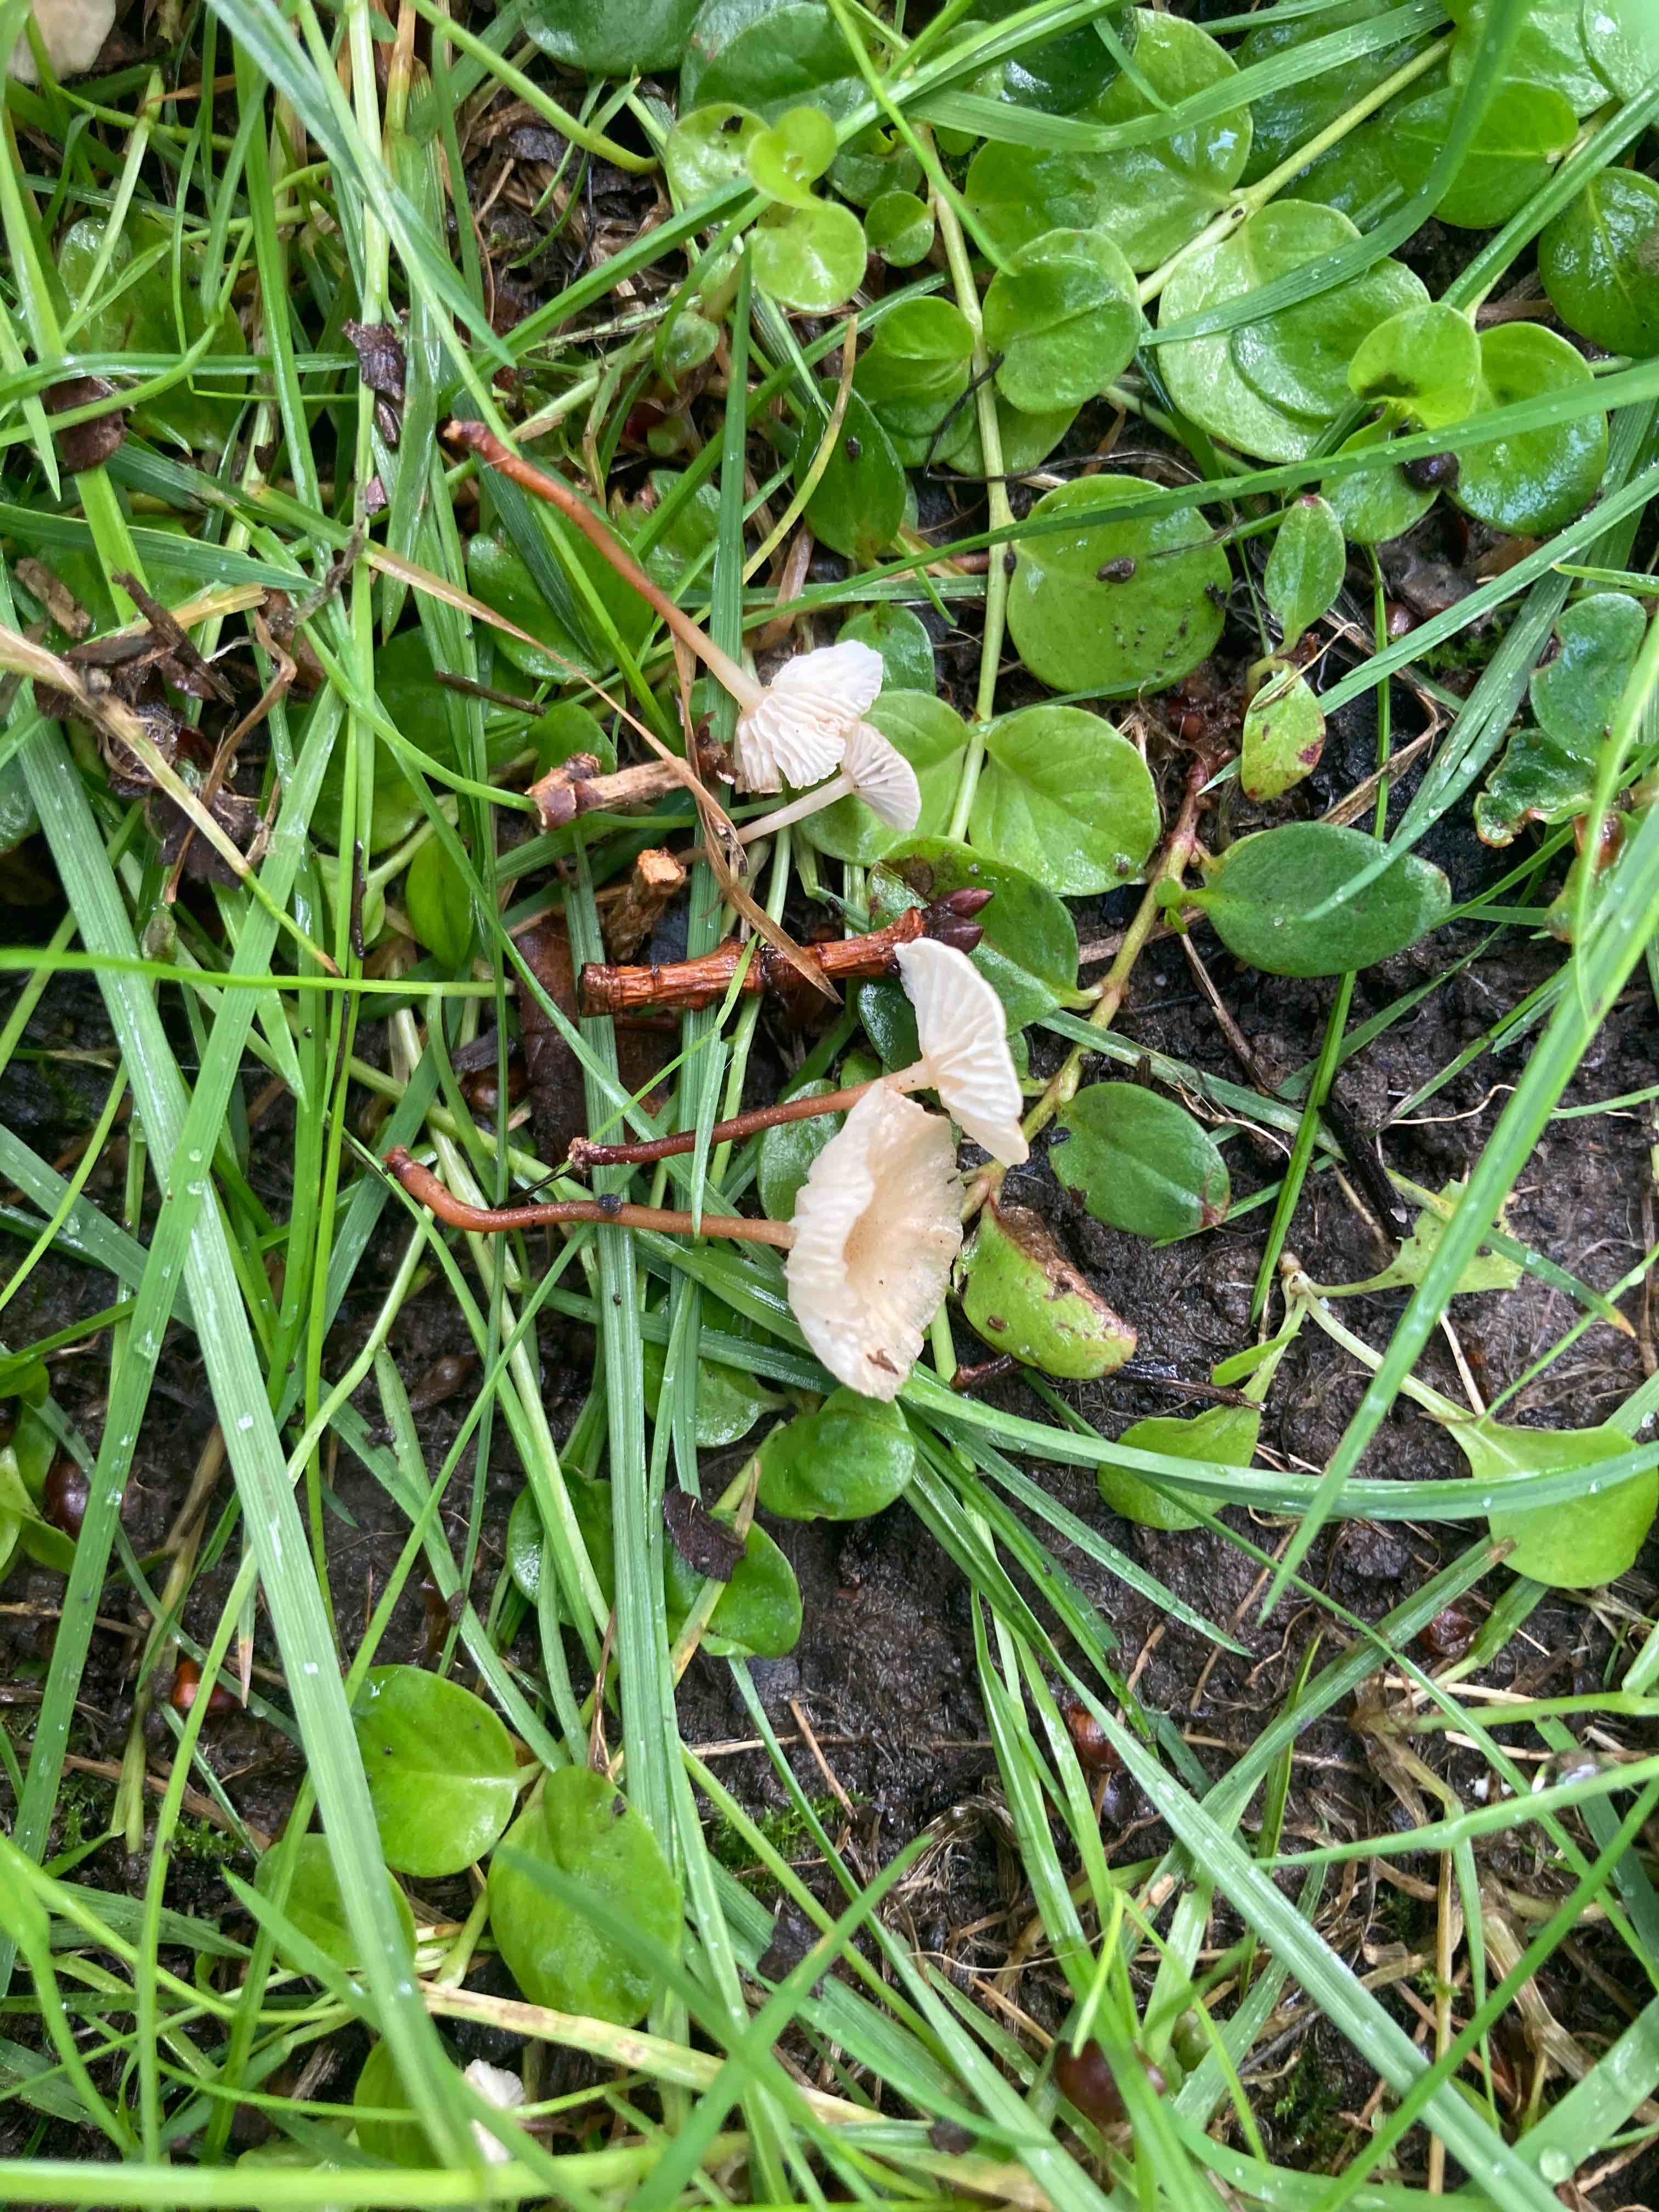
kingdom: Fungi
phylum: Basidiomycota
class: Agaricomycetes
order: Agaricales
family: Omphalotaceae
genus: Collybiopsis
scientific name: Collybiopsis vaillantii
